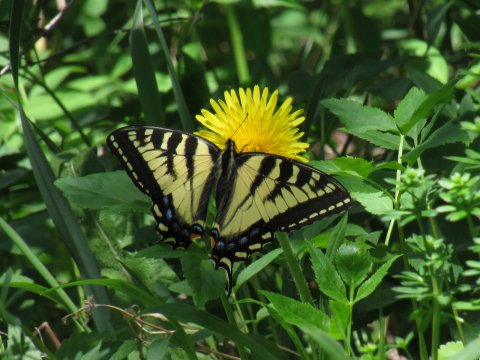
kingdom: Animalia
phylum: Arthropoda
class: Insecta
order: Lepidoptera
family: Papilionidae
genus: Pterourus
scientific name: Pterourus canadensis
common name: Canadian Tiger Swallowtail
